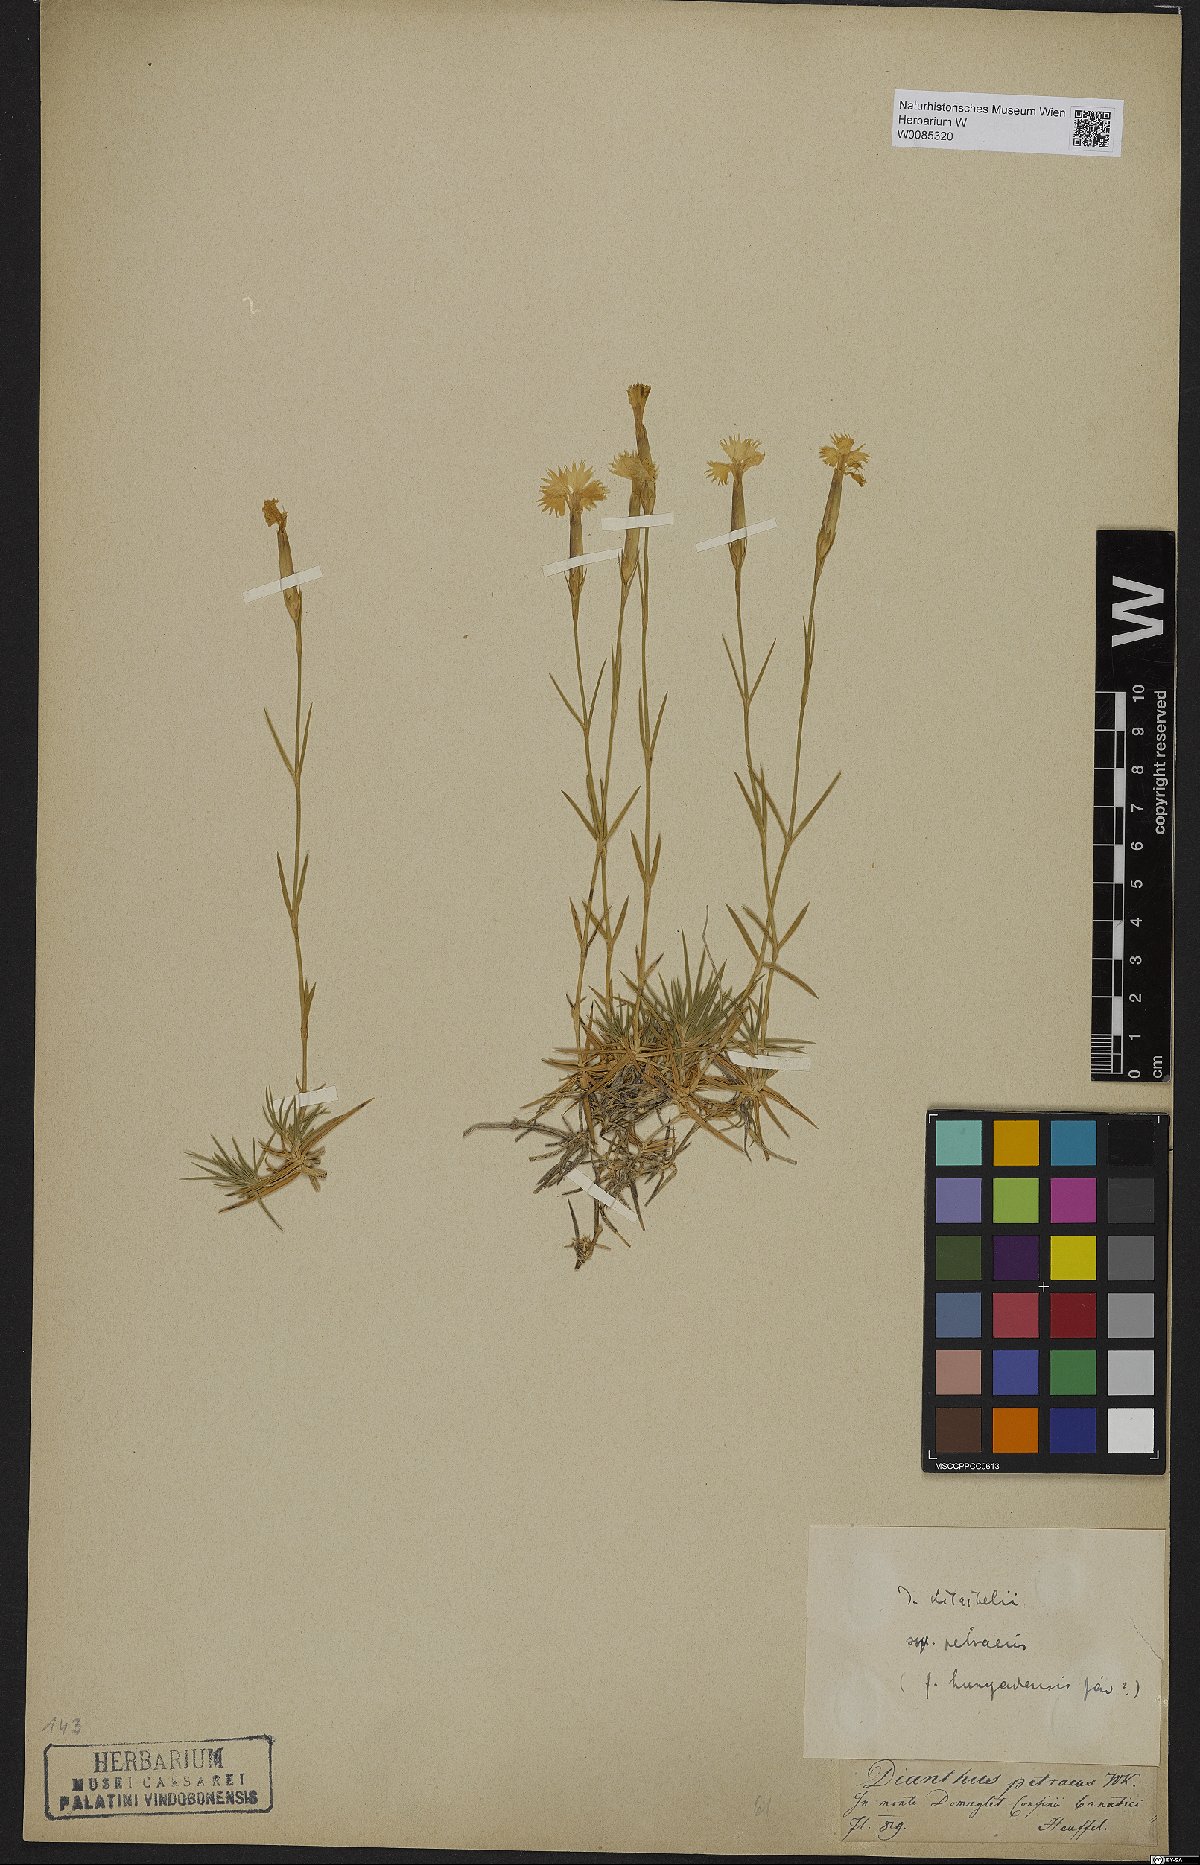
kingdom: Plantae
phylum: Tracheophyta
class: Magnoliopsida
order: Caryophyllales
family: Caryophyllaceae
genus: Dianthus
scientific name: Dianthus petraeus
